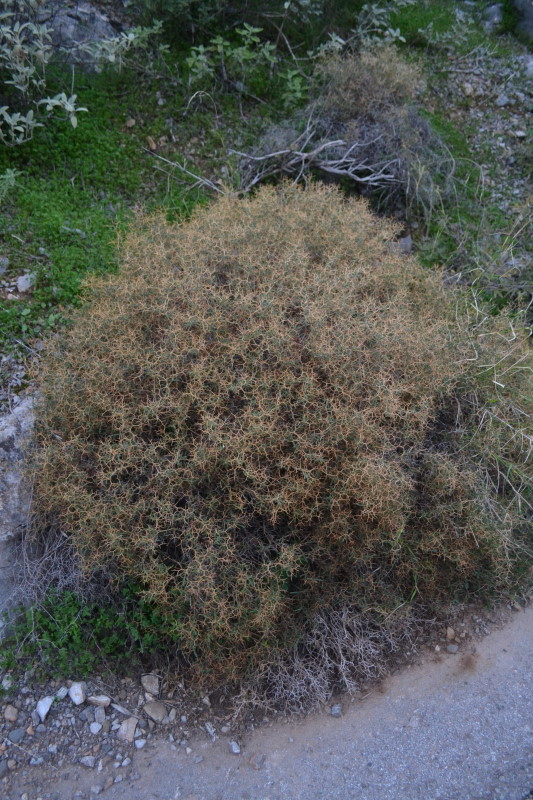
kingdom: Plantae
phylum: Tracheophyta
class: Magnoliopsida
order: Rosales
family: Rosaceae
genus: Sarcopoterium
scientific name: Sarcopoterium spinosum
